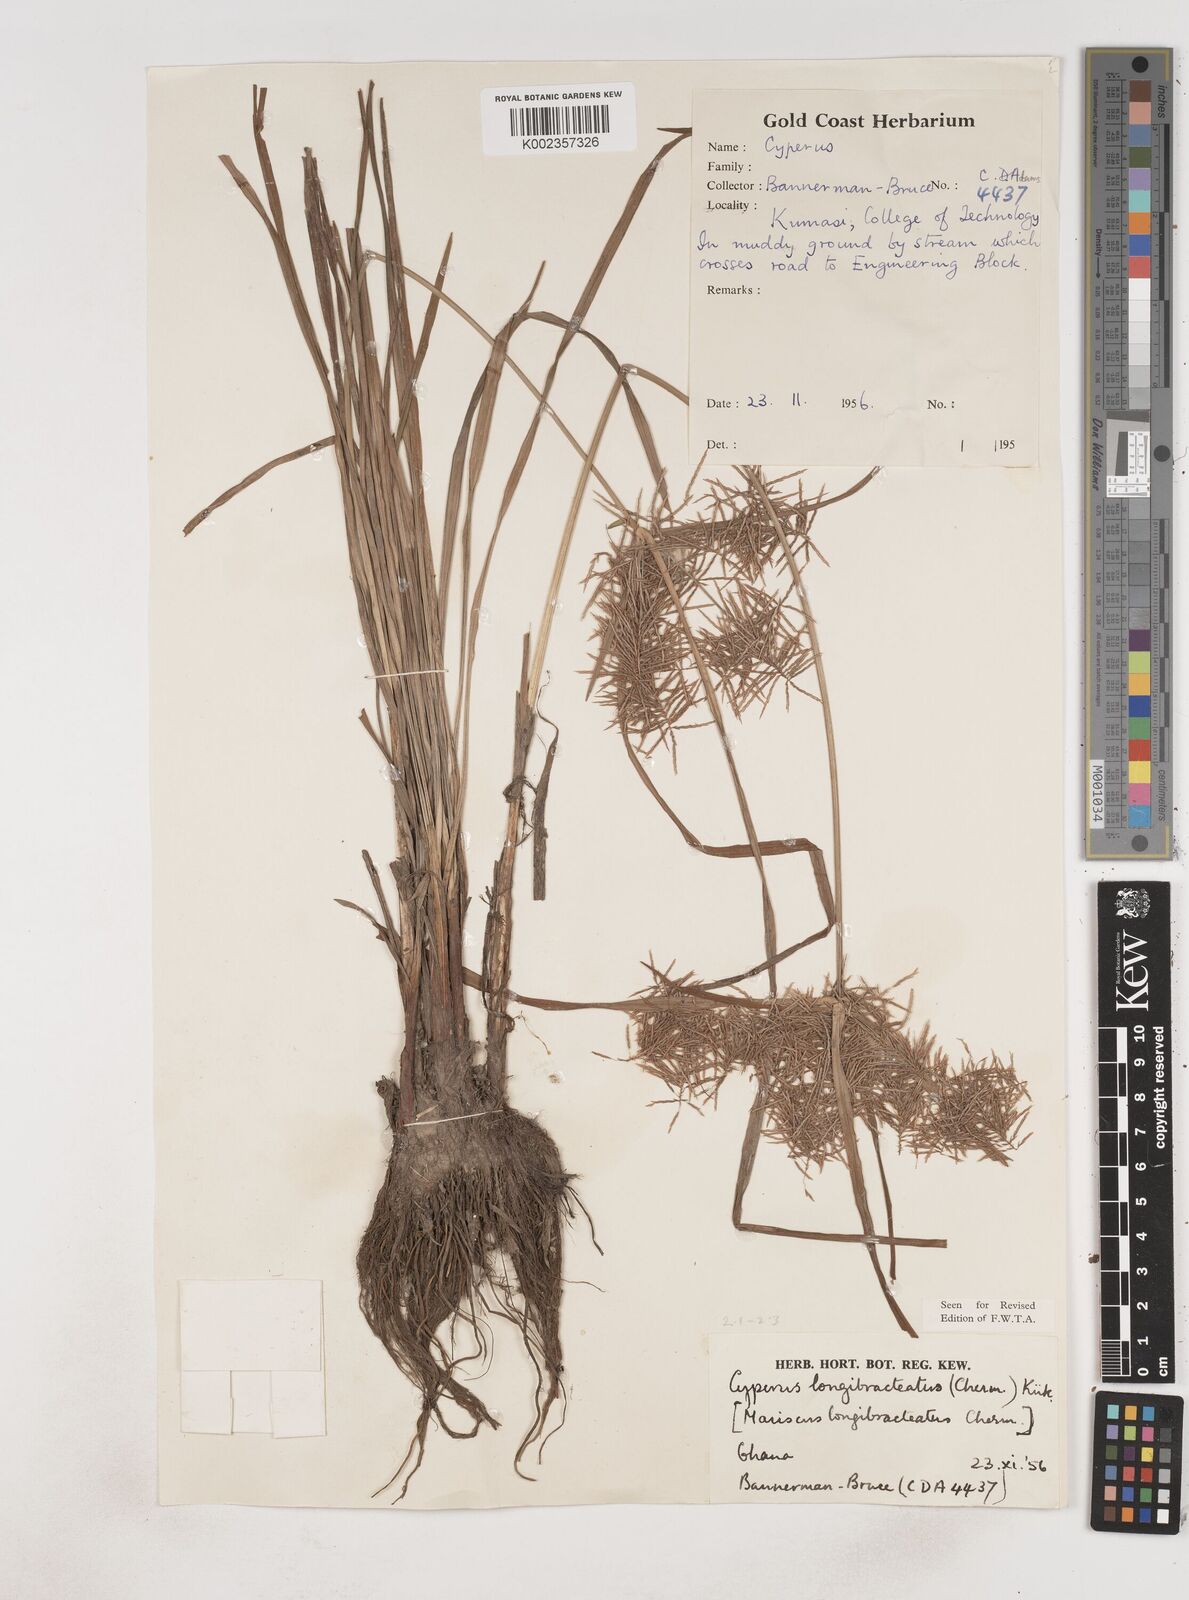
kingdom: Plantae
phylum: Tracheophyta
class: Liliopsida
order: Poales
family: Cyperaceae
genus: Cyperus
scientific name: Cyperus distans
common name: Slender cyperus
